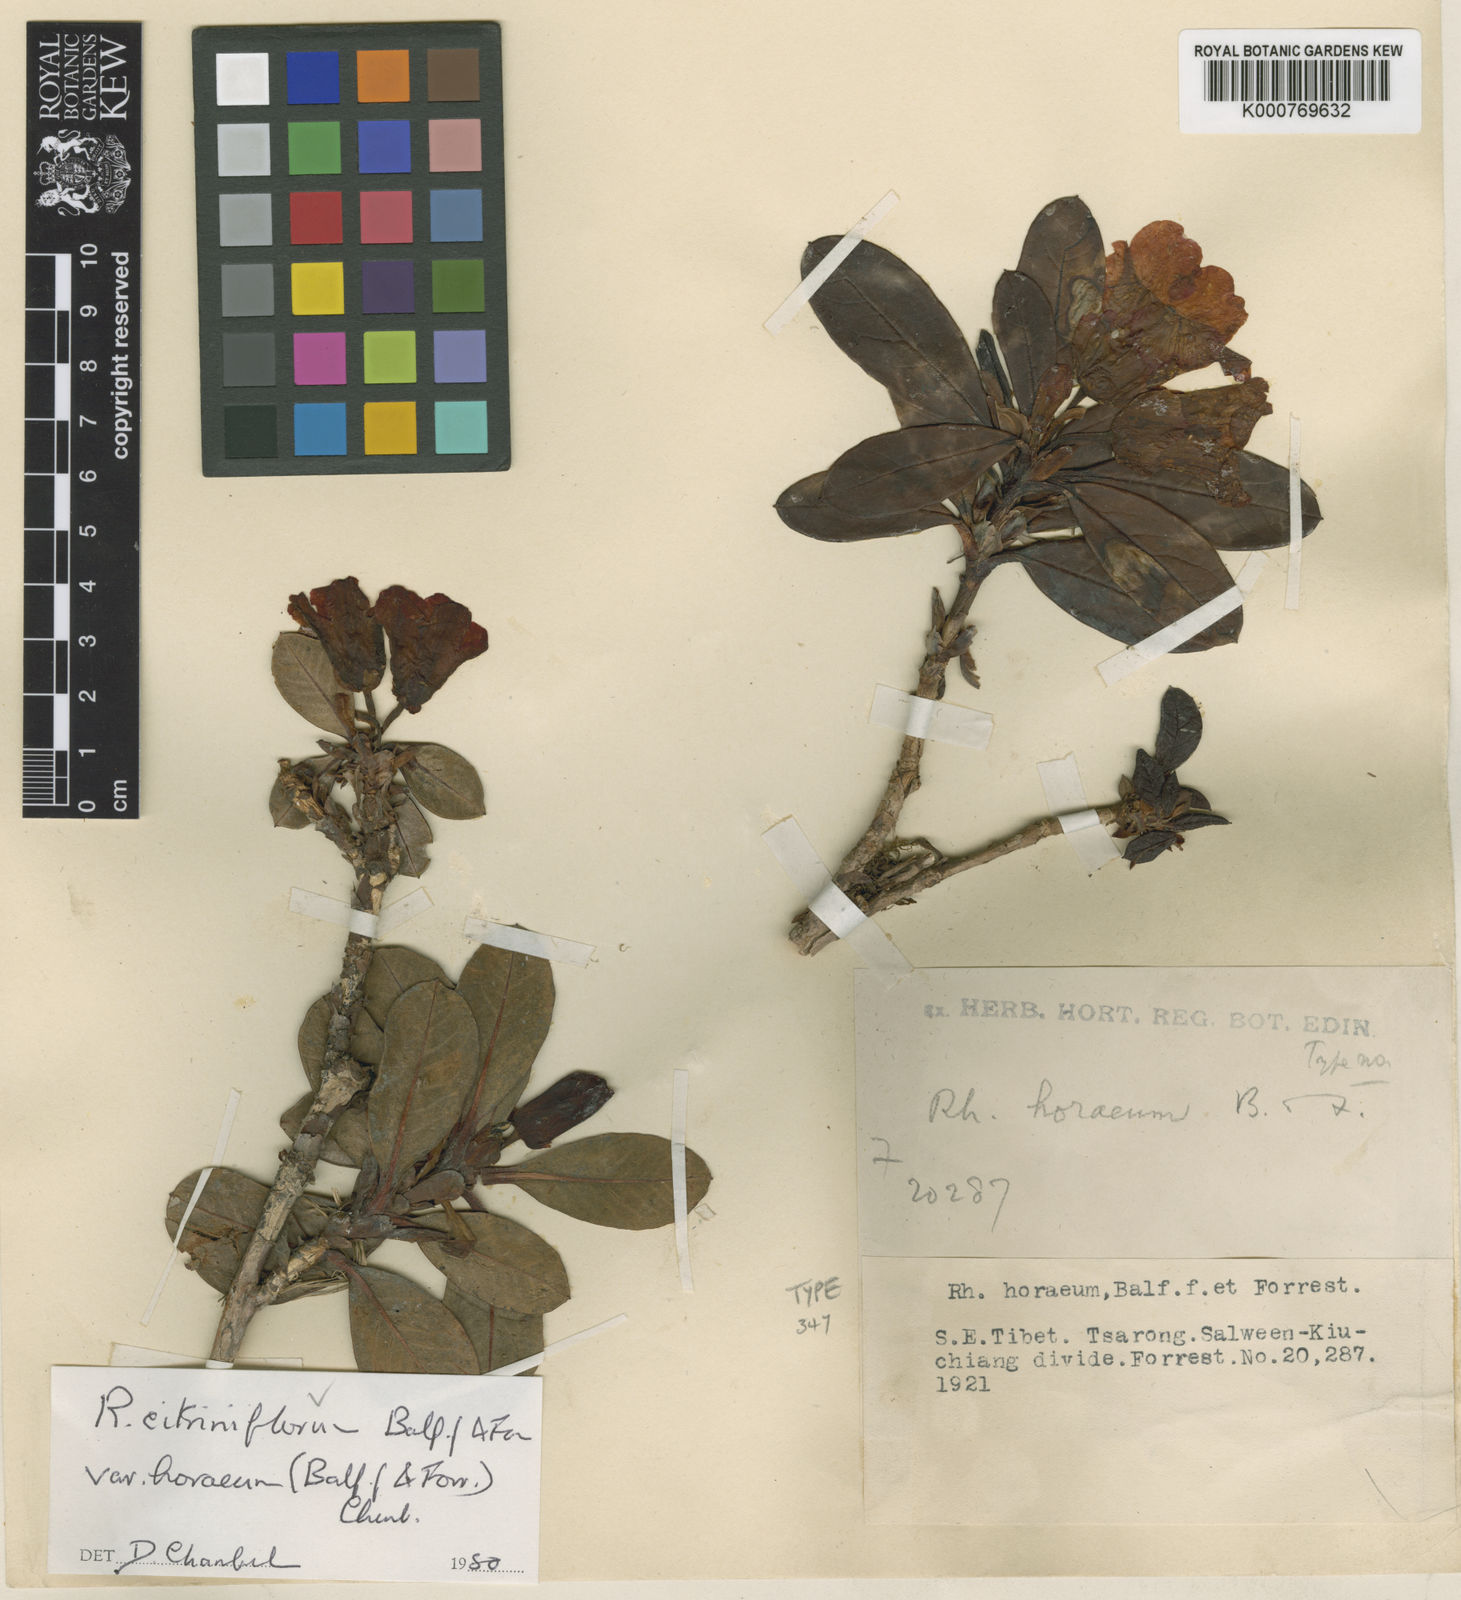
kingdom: Plantae
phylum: Tracheophyta
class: Magnoliopsida
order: Ericales
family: Ericaceae
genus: Rhododendron
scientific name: Rhododendron citriniflorum
